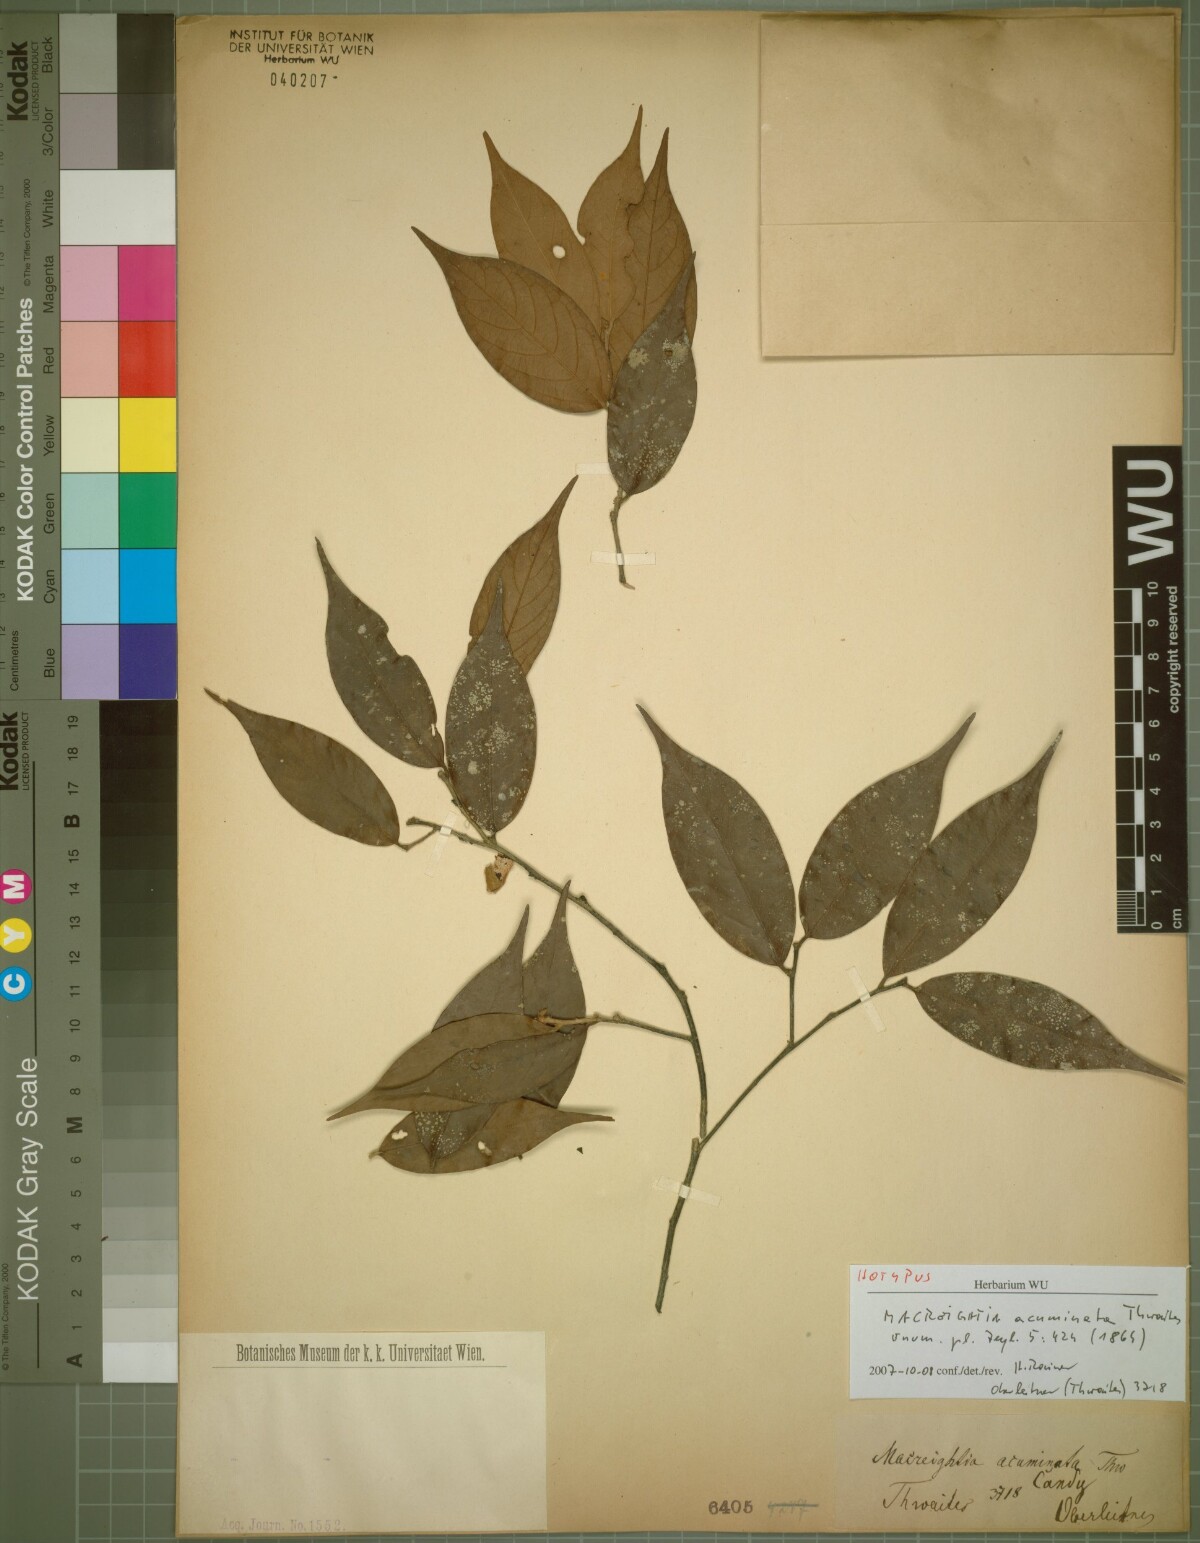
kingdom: Plantae
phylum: Tracheophyta
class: Magnoliopsida
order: Ericales
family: Ebenaceae
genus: Diospyros
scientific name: Diospyros acuminata
